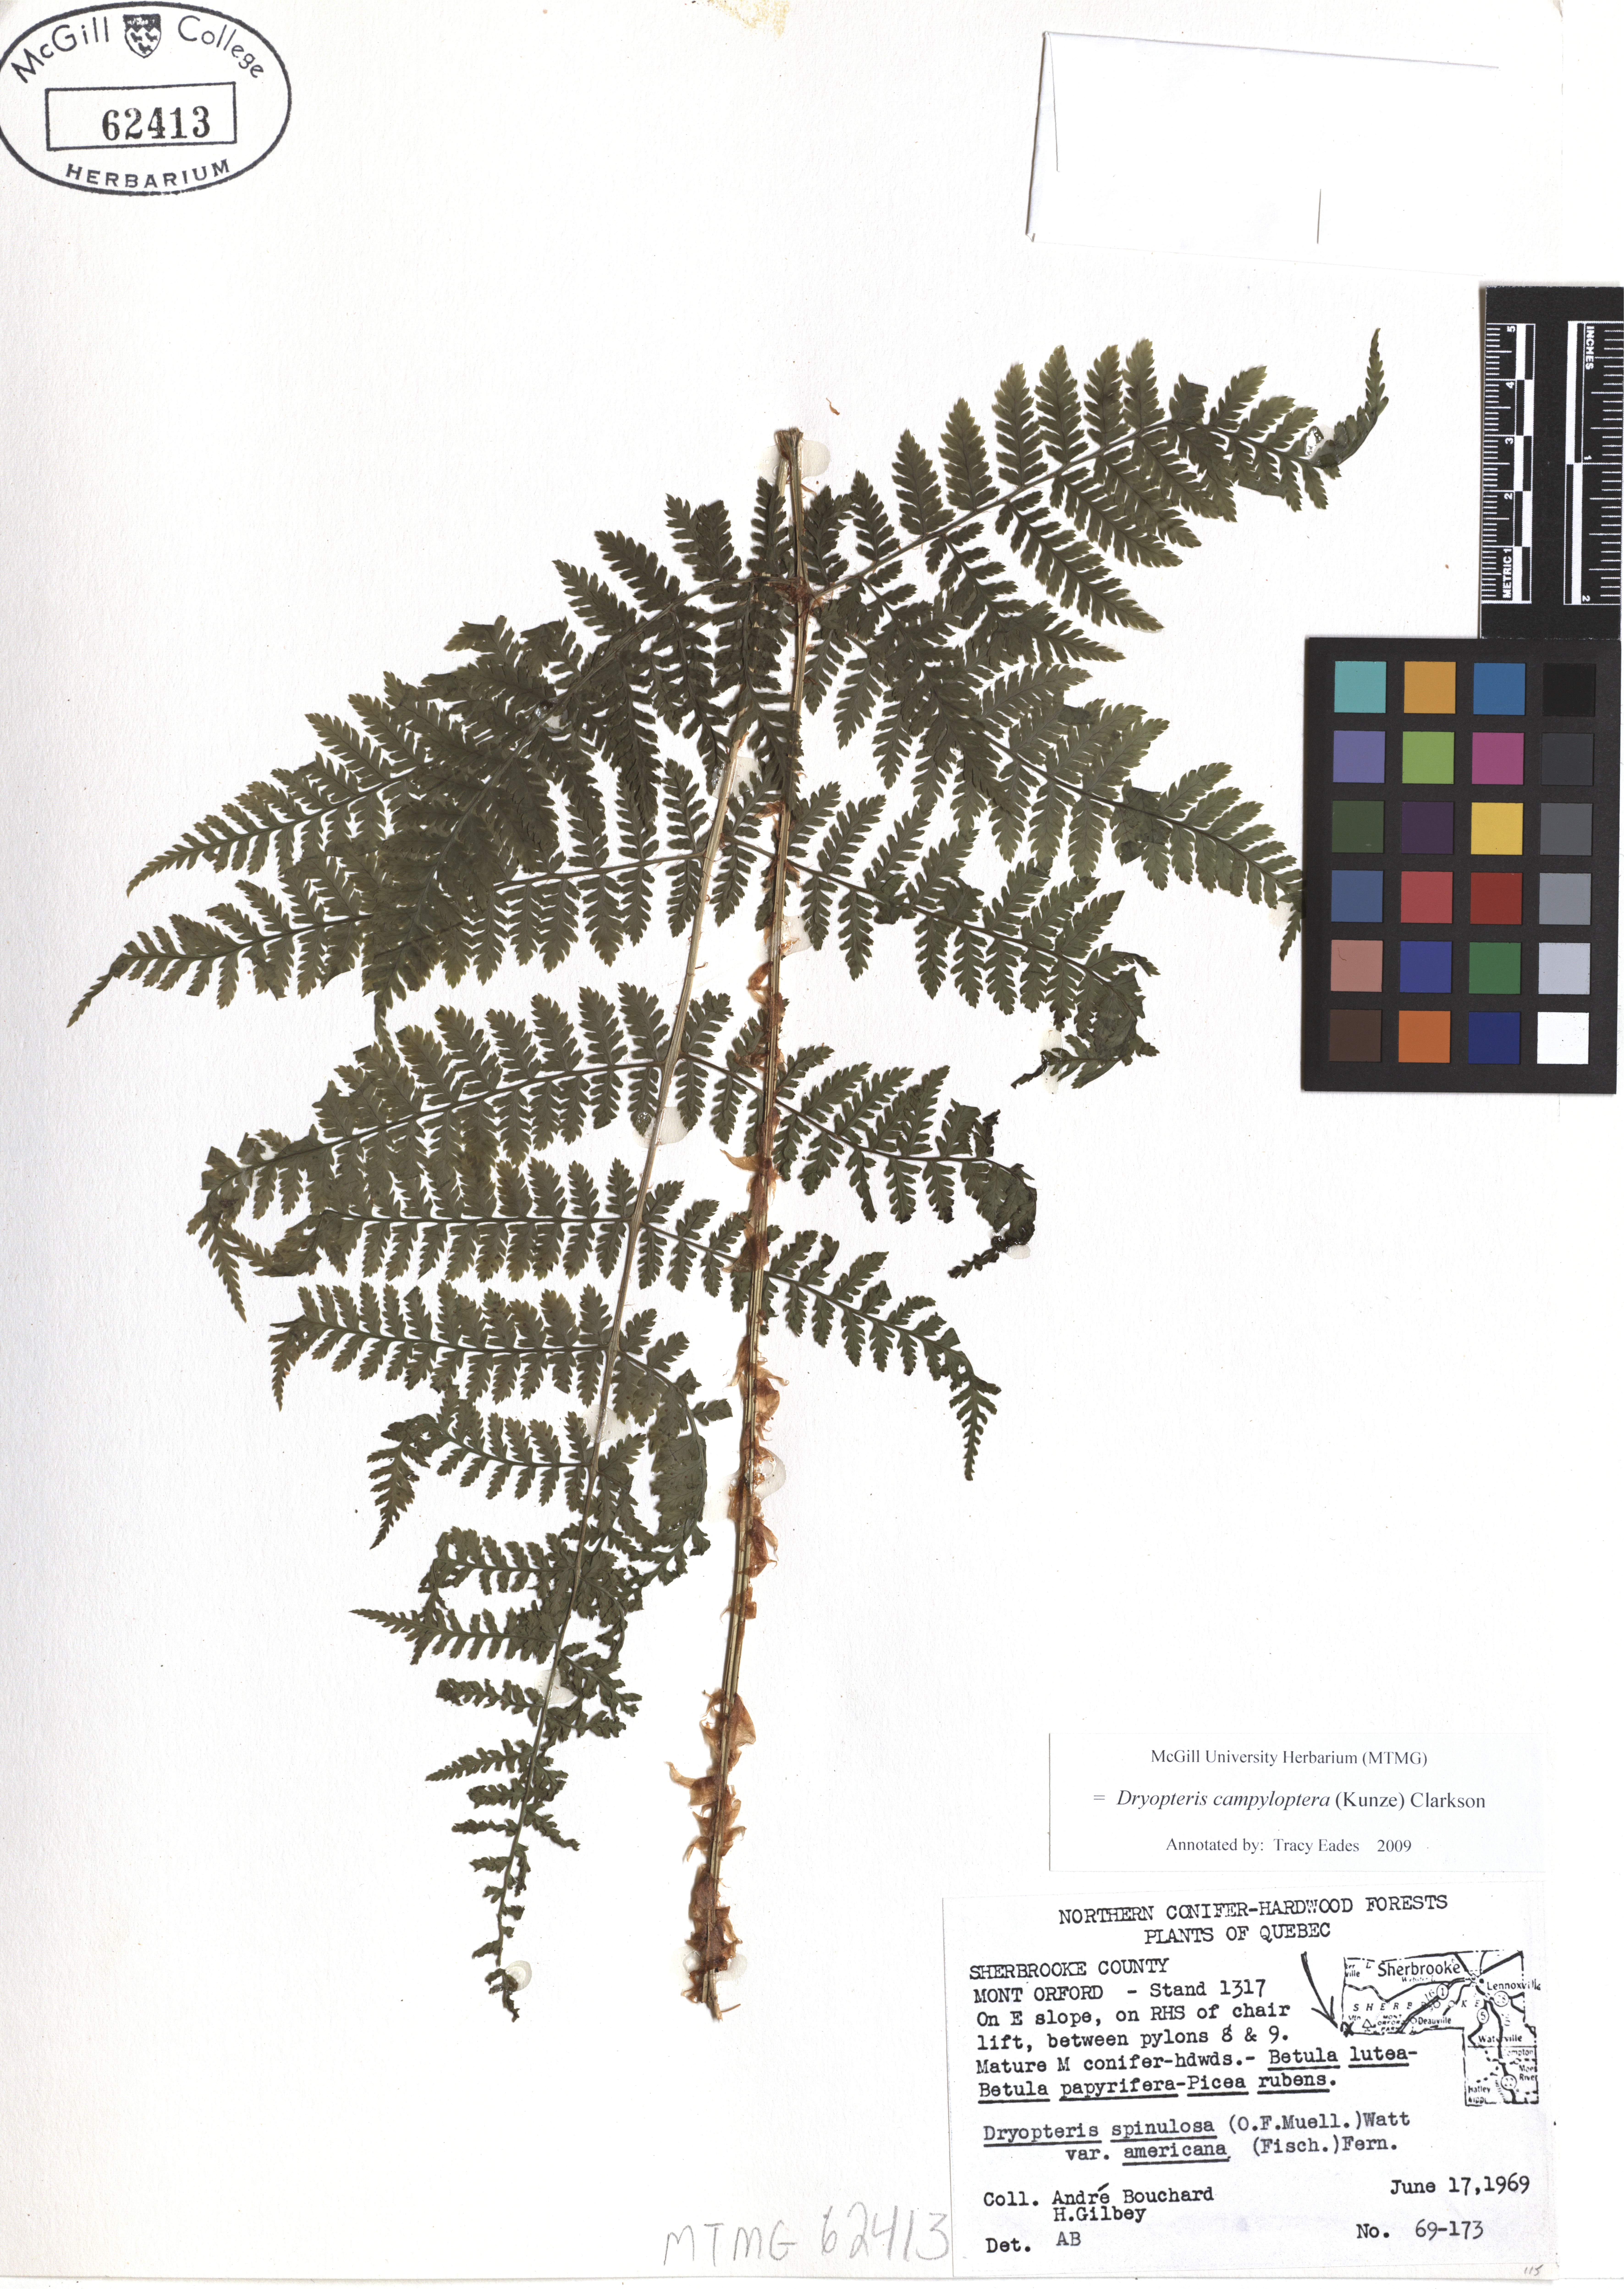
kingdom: Plantae
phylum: Tracheophyta
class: Polypodiopsida
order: Polypodiales
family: Dryopteridaceae
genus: Dryopteris
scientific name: Dryopteris campyloptera
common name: Mountain wood fern
